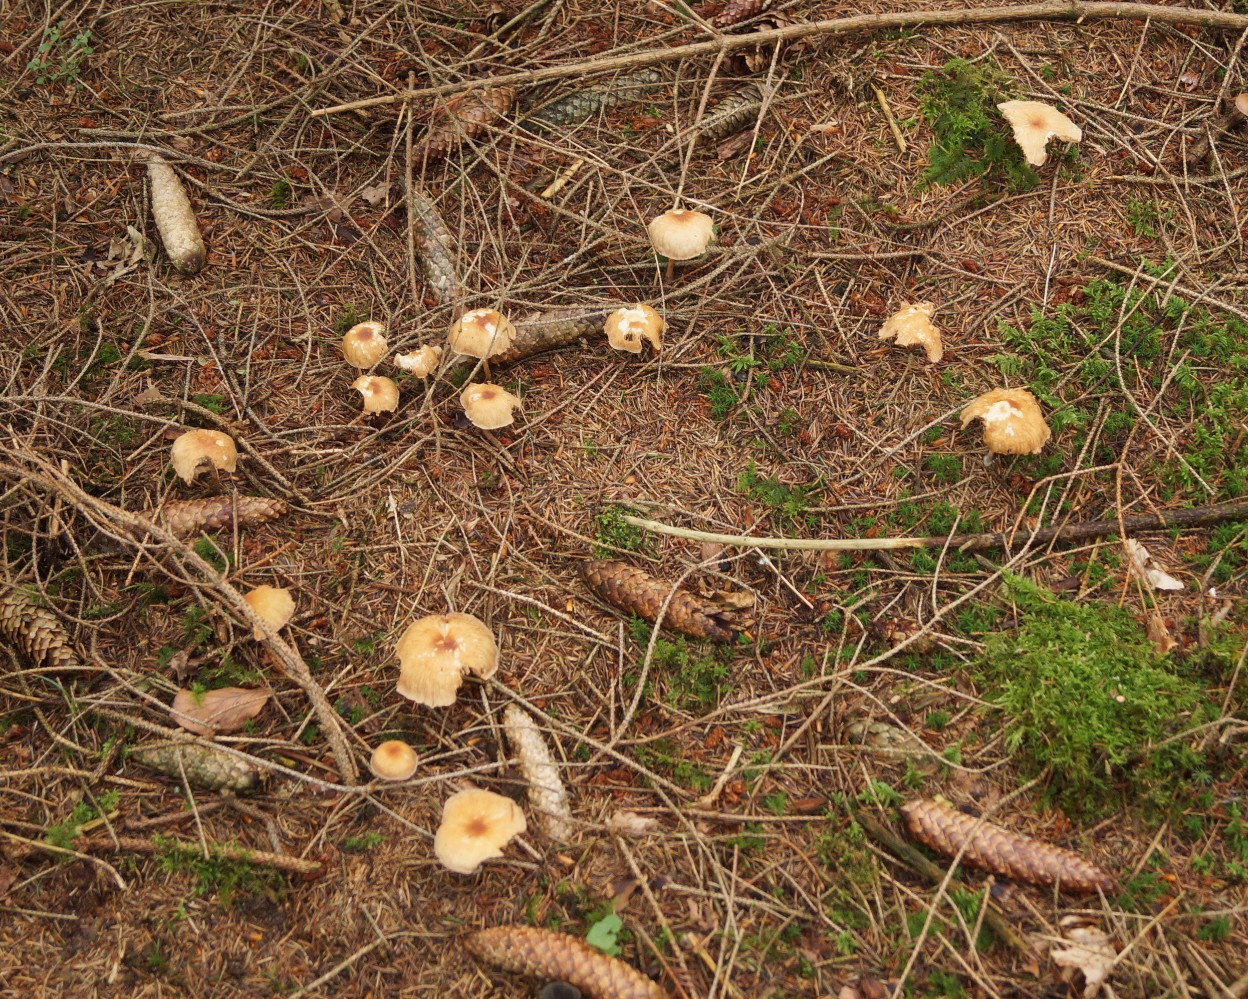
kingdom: Fungi
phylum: Basidiomycota
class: Agaricomycetes
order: Agaricales
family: Omphalotaceae
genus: Collybiopsis
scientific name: Collybiopsis peronata
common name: bestøvlet fladhat
